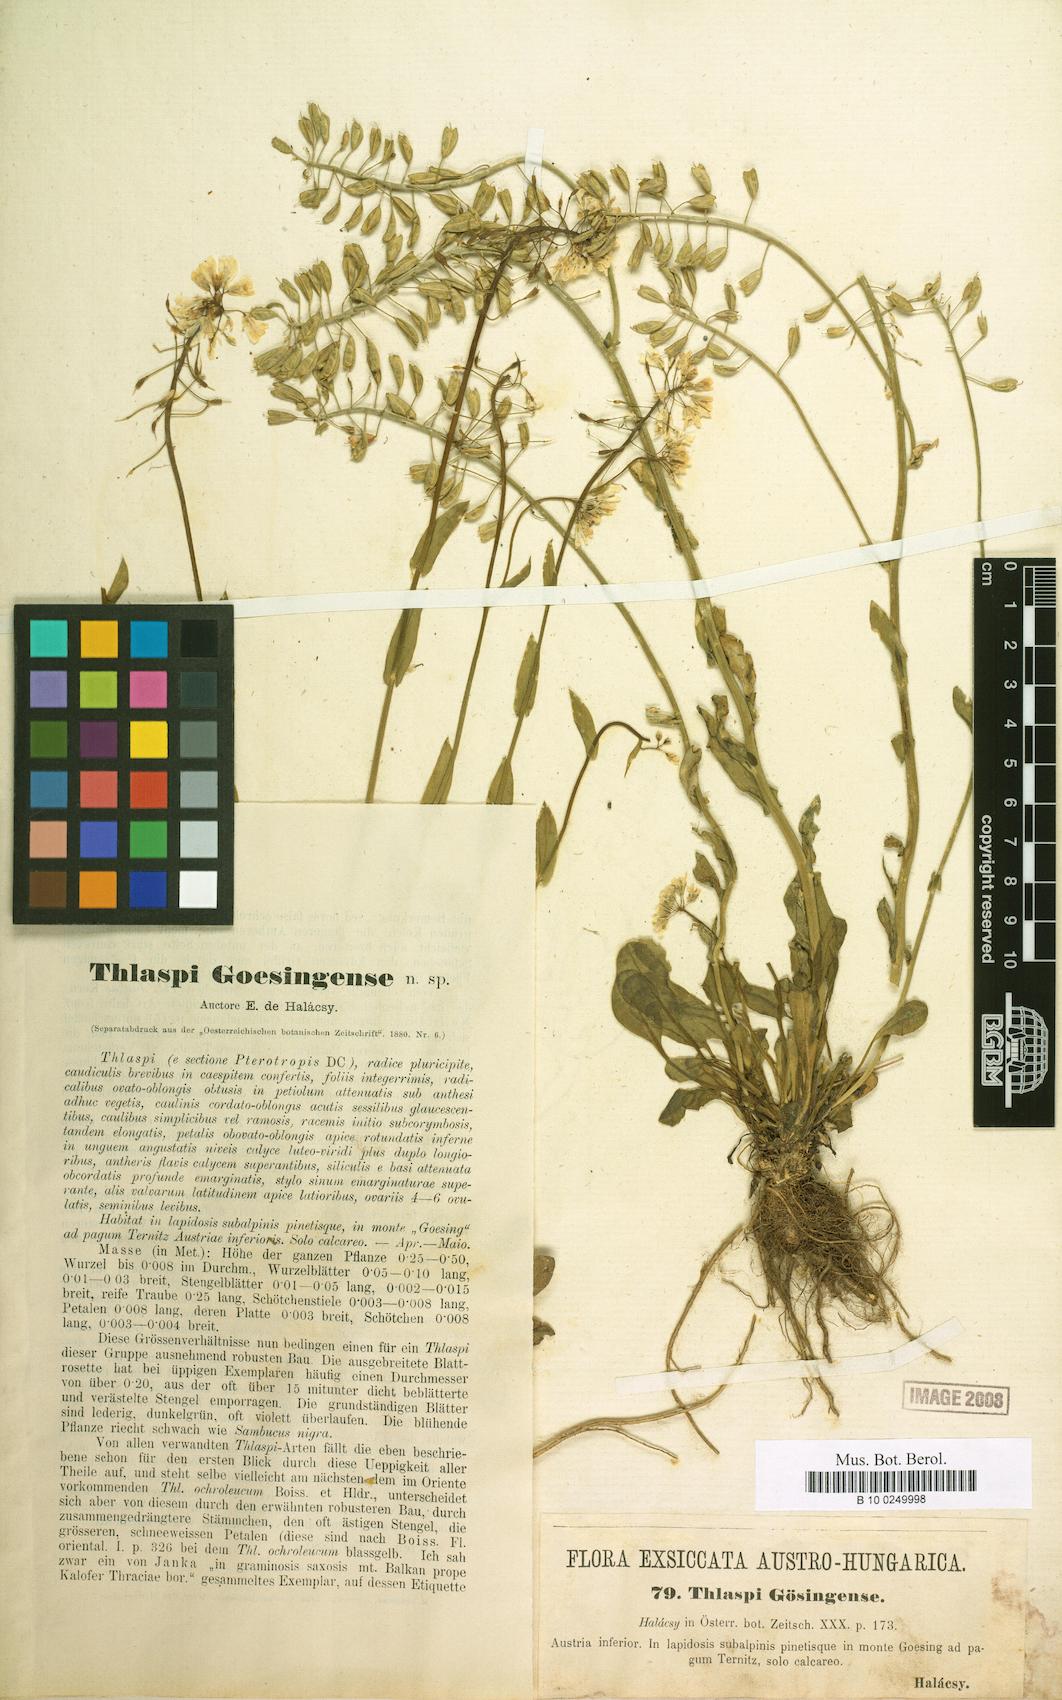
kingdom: Plantae
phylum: Tracheophyta
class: Magnoliopsida
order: Brassicales
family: Brassicaceae
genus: Noccaea
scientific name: Noccaea goesingensis
